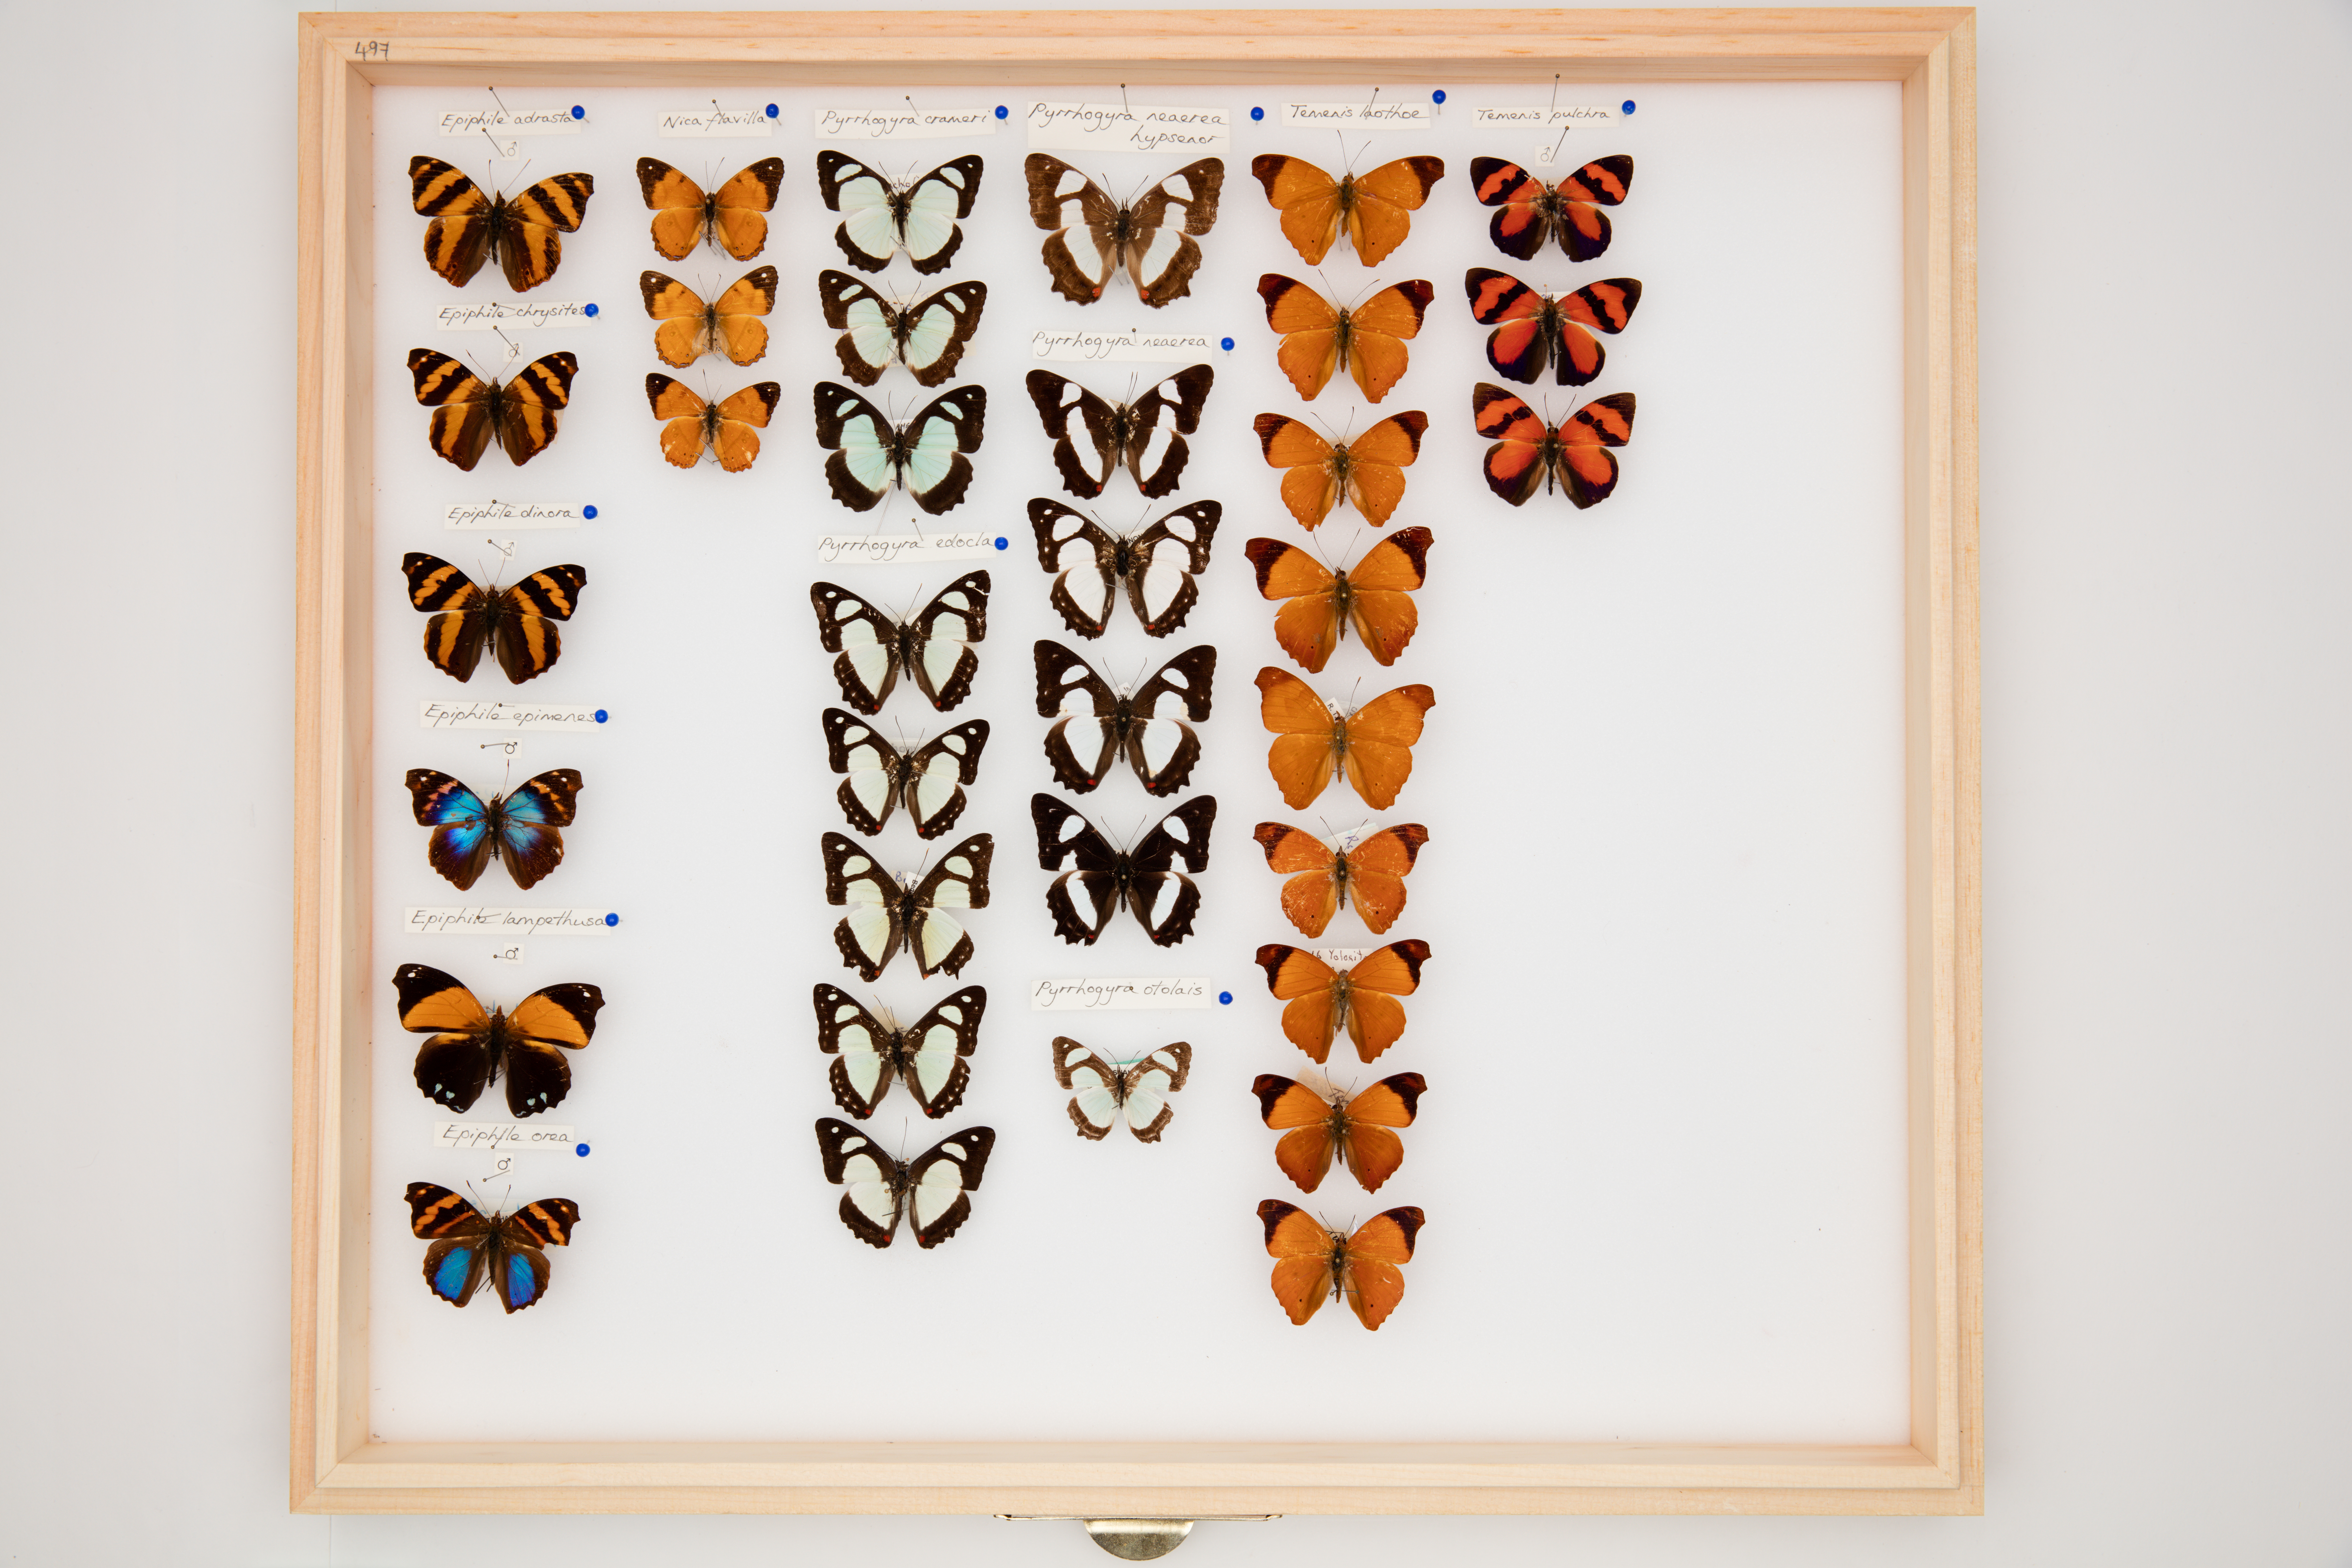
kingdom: Animalia
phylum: Arthropoda
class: Insecta
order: Lepidoptera
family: Nymphalidae
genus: Temenis
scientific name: Temenis pulchra
